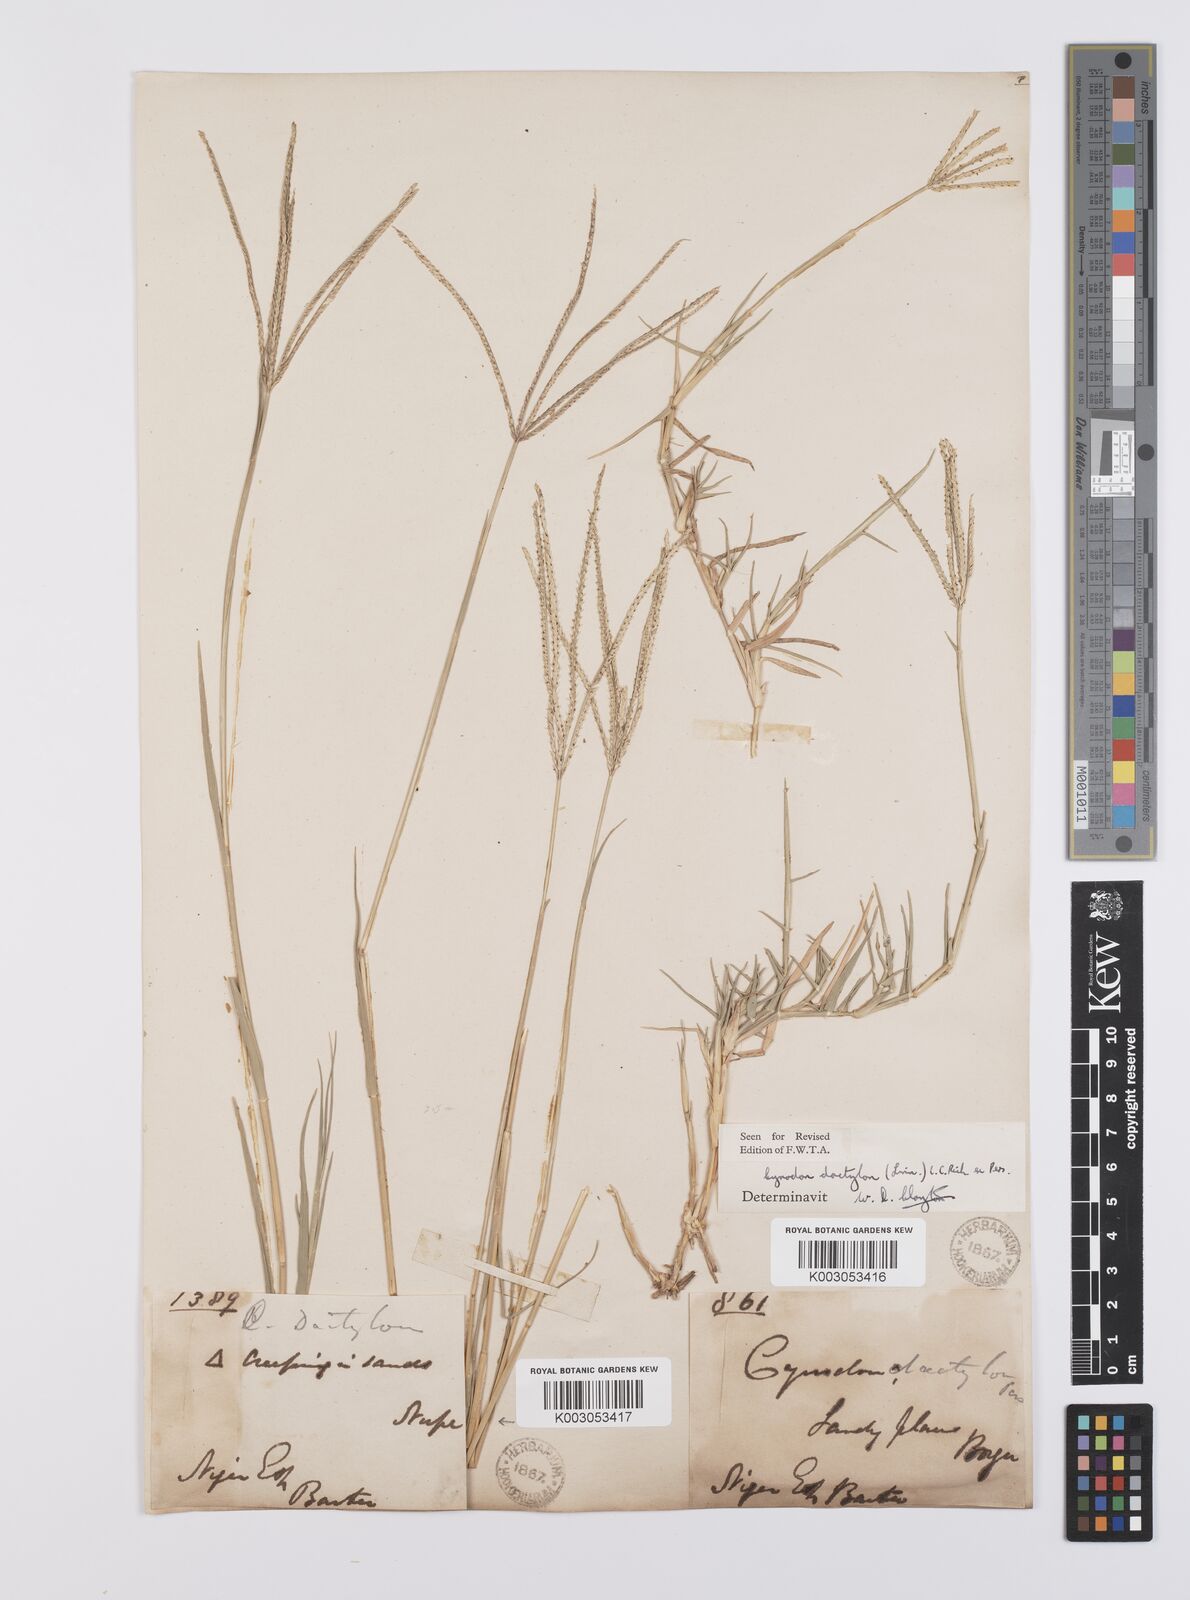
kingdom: Plantae
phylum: Tracheophyta
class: Liliopsida
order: Poales
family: Poaceae
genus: Cynodon
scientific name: Cynodon dactylon
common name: Bermuda grass
